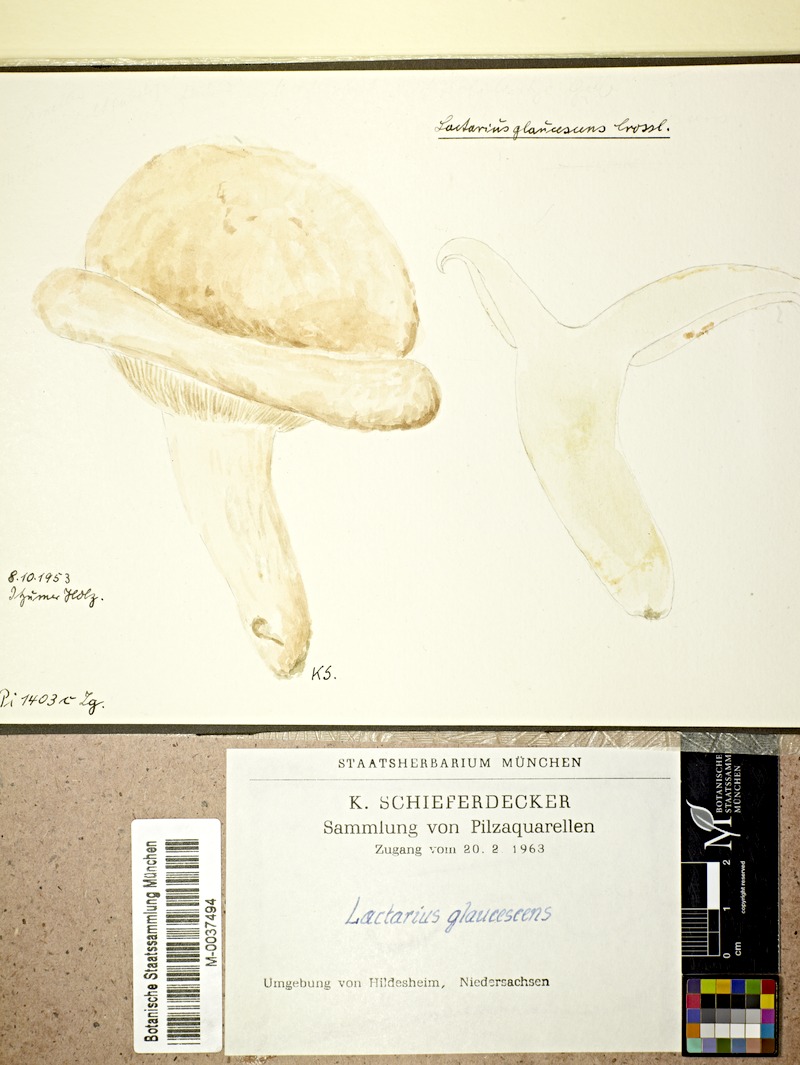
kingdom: Fungi
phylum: Basidiomycota
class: Agaricomycetes
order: Russulales
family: Russulaceae
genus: Lactifluus
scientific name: Lactifluus glaucescens
